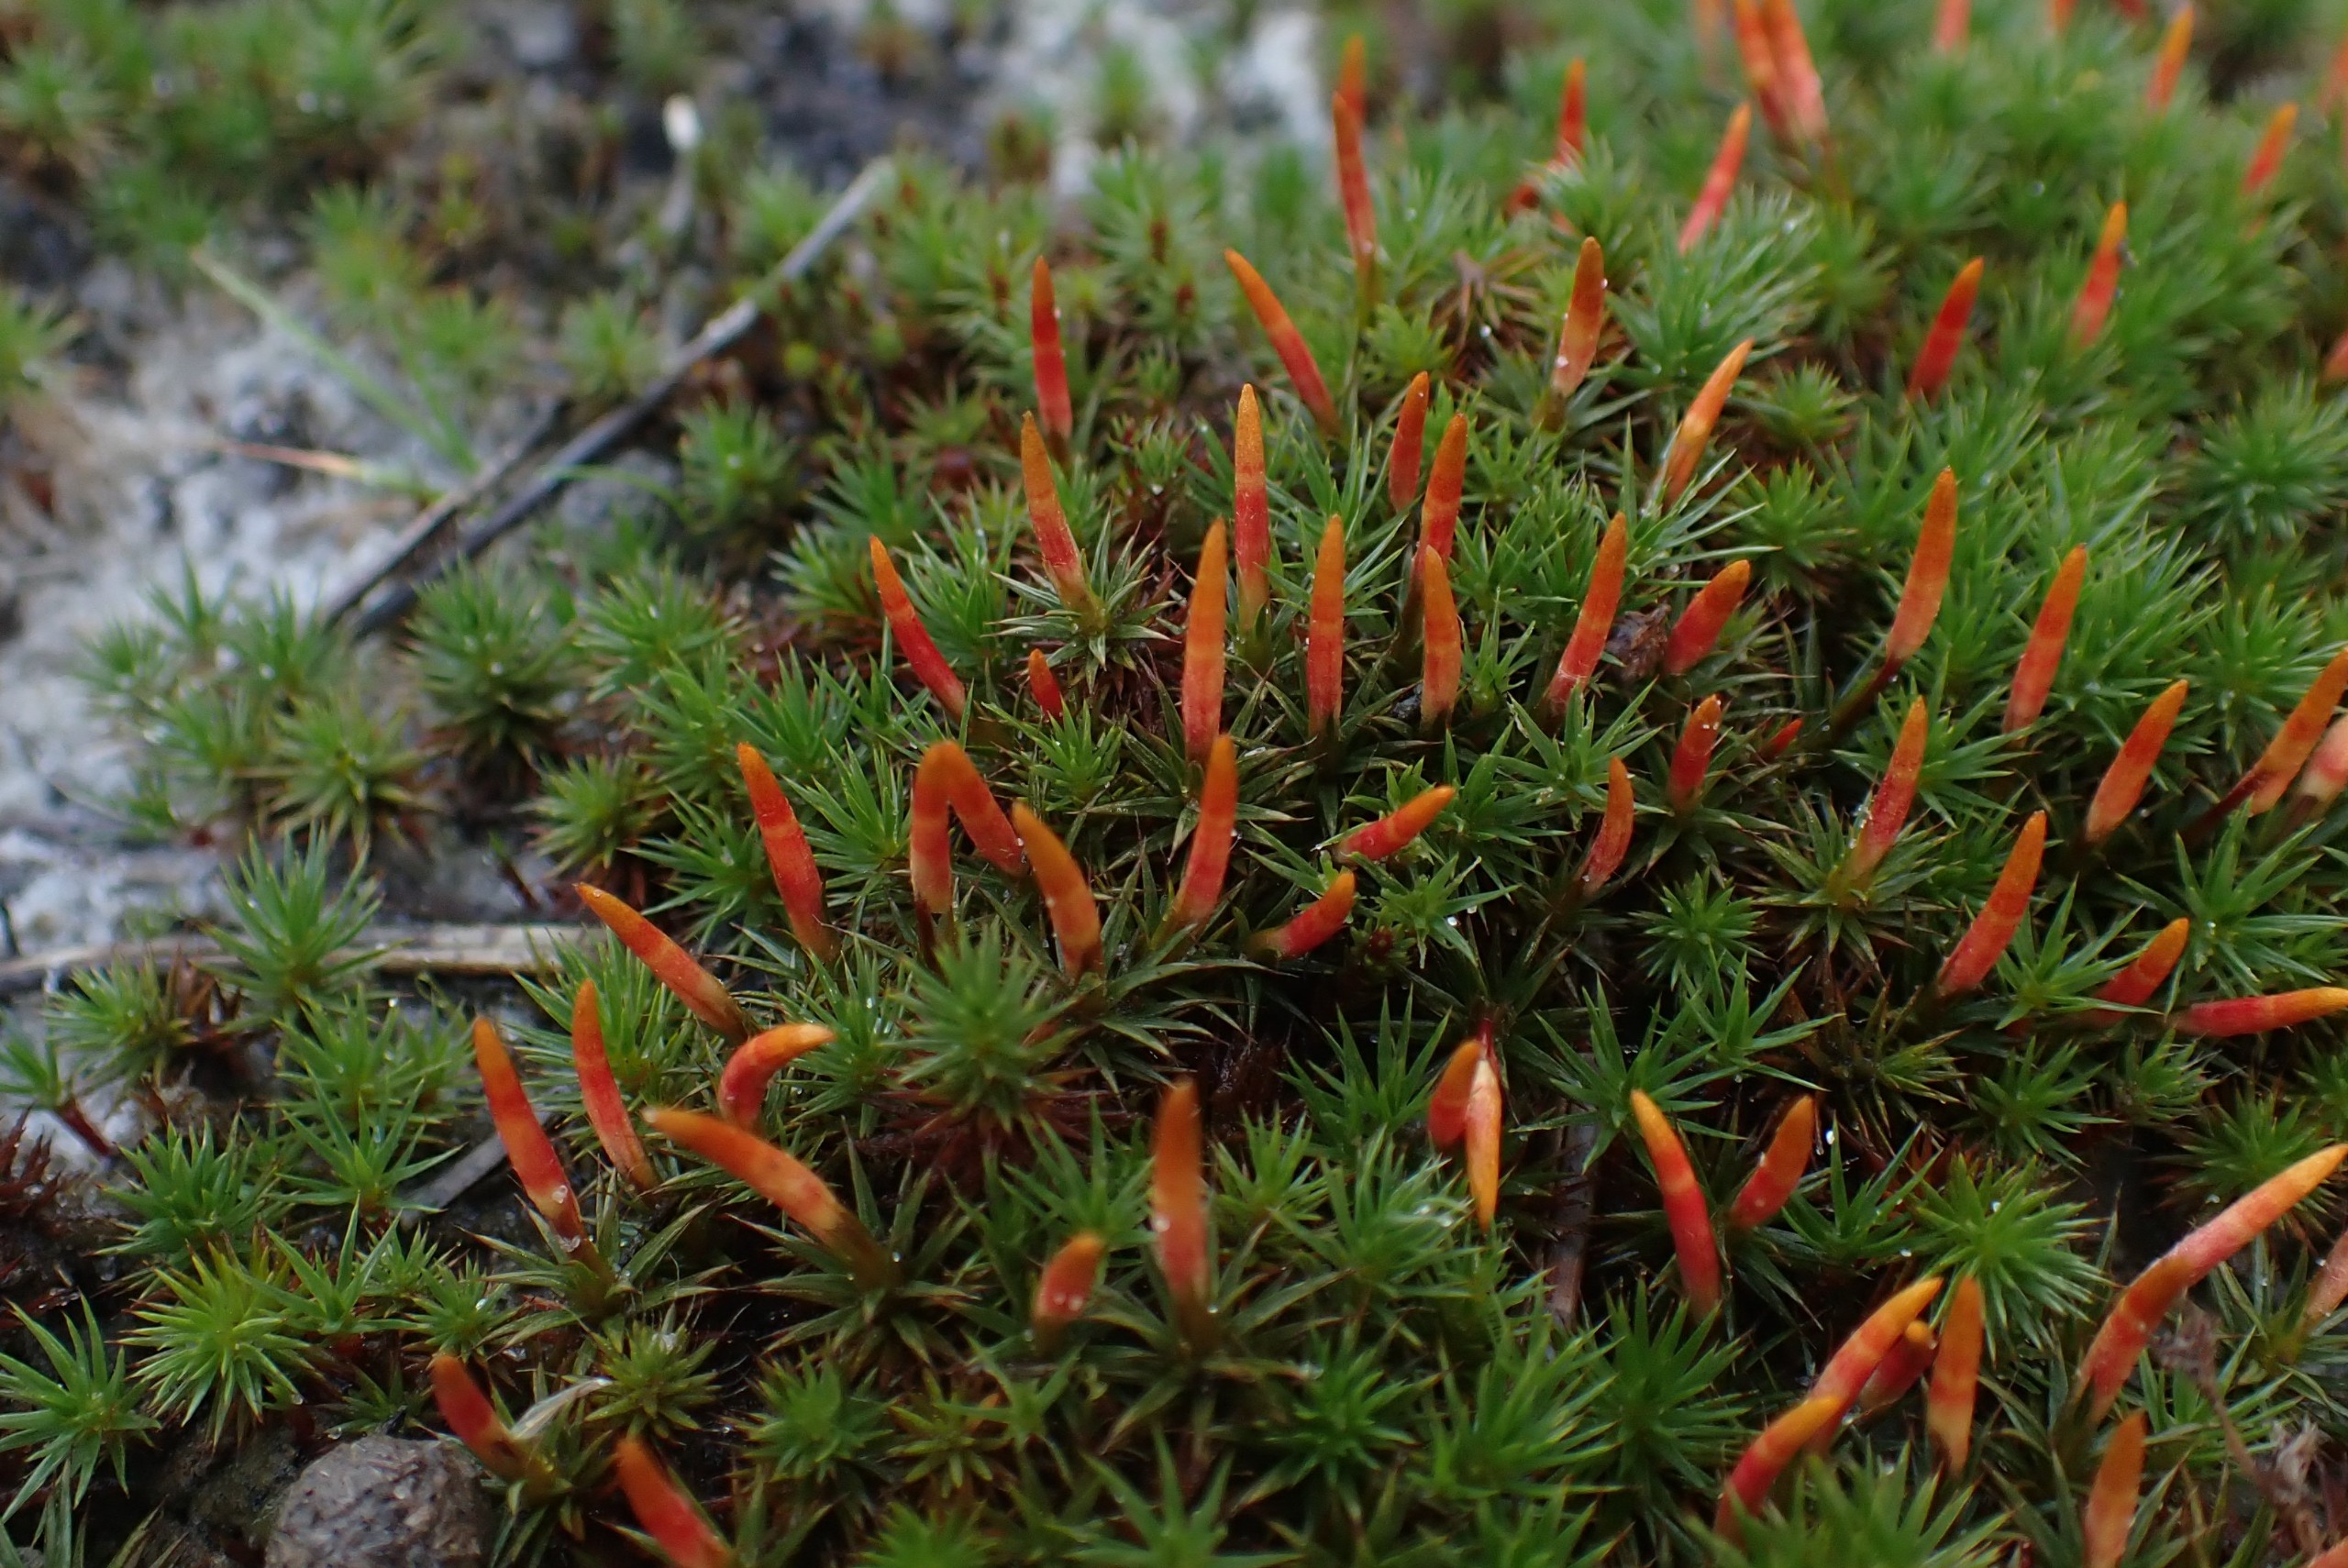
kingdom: Plantae
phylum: Bryophyta
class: Polytrichopsida
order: Polytrichales
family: Polytrichaceae
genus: Polytrichum
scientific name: Polytrichum juniperinum
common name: Ene-jomfruhår
